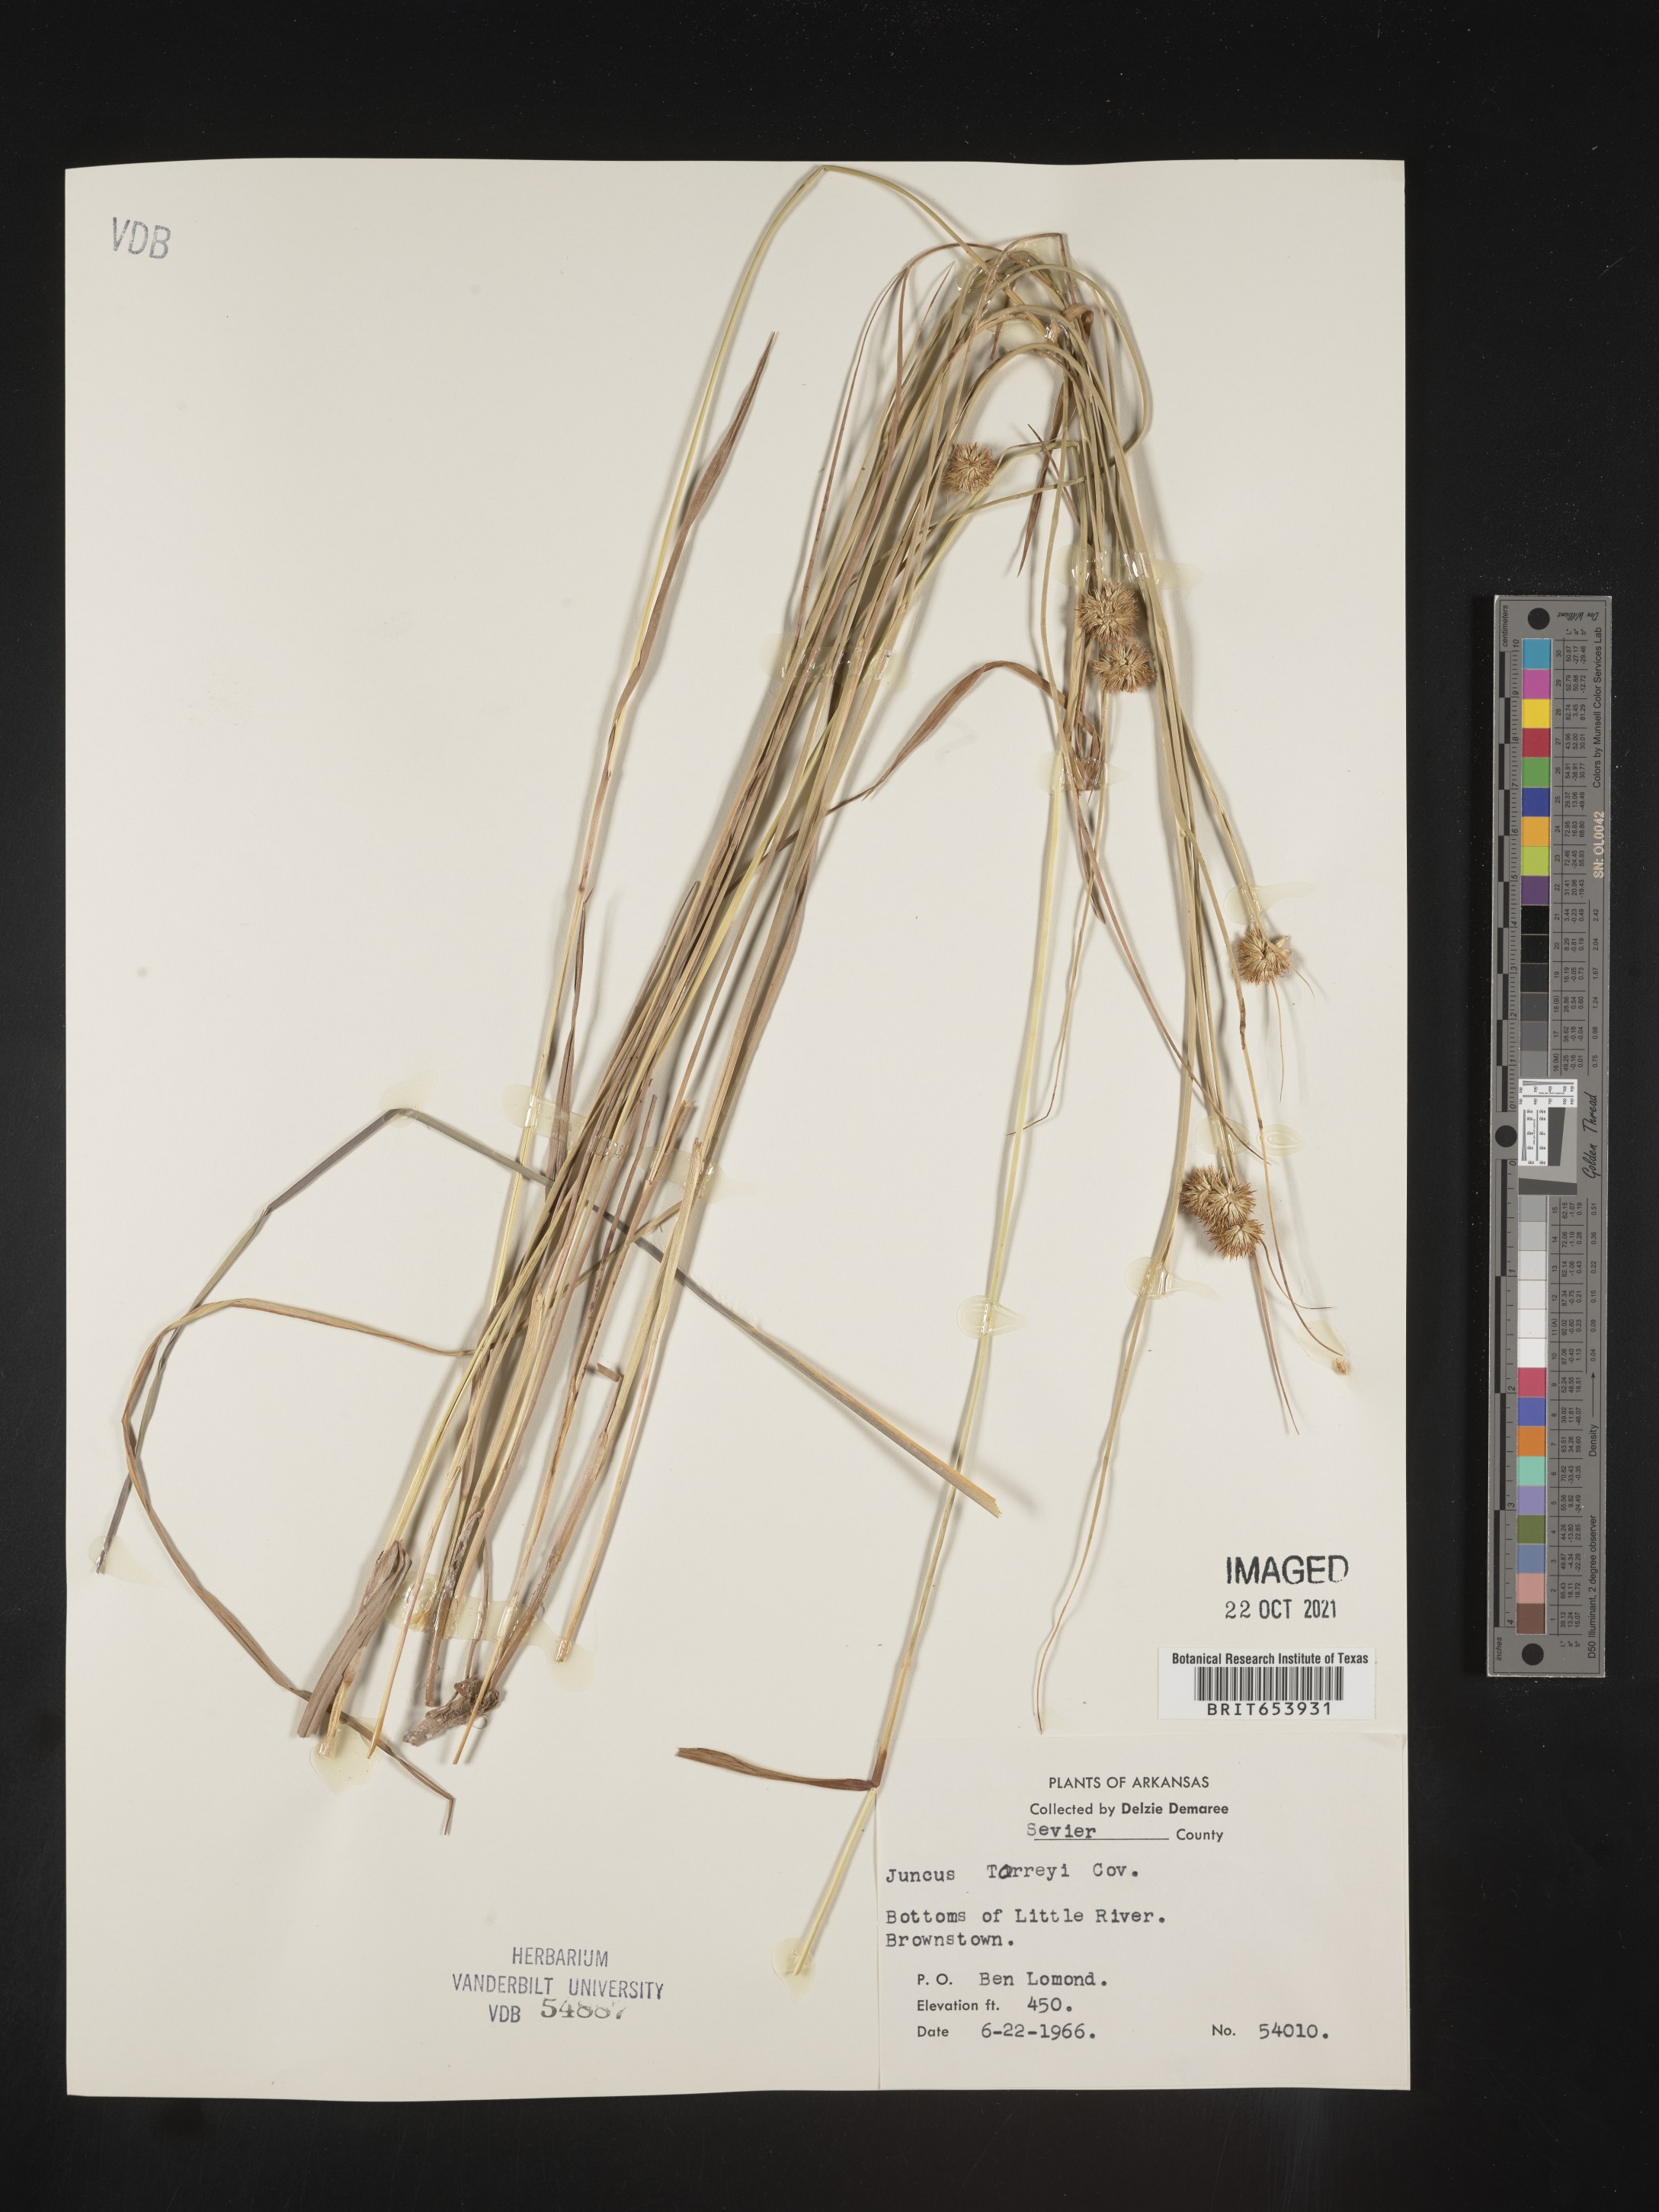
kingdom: Plantae
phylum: Tracheophyta
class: Liliopsida
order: Poales
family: Juncaceae
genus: Juncus
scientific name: Juncus torreyi
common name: Torrey's rush
